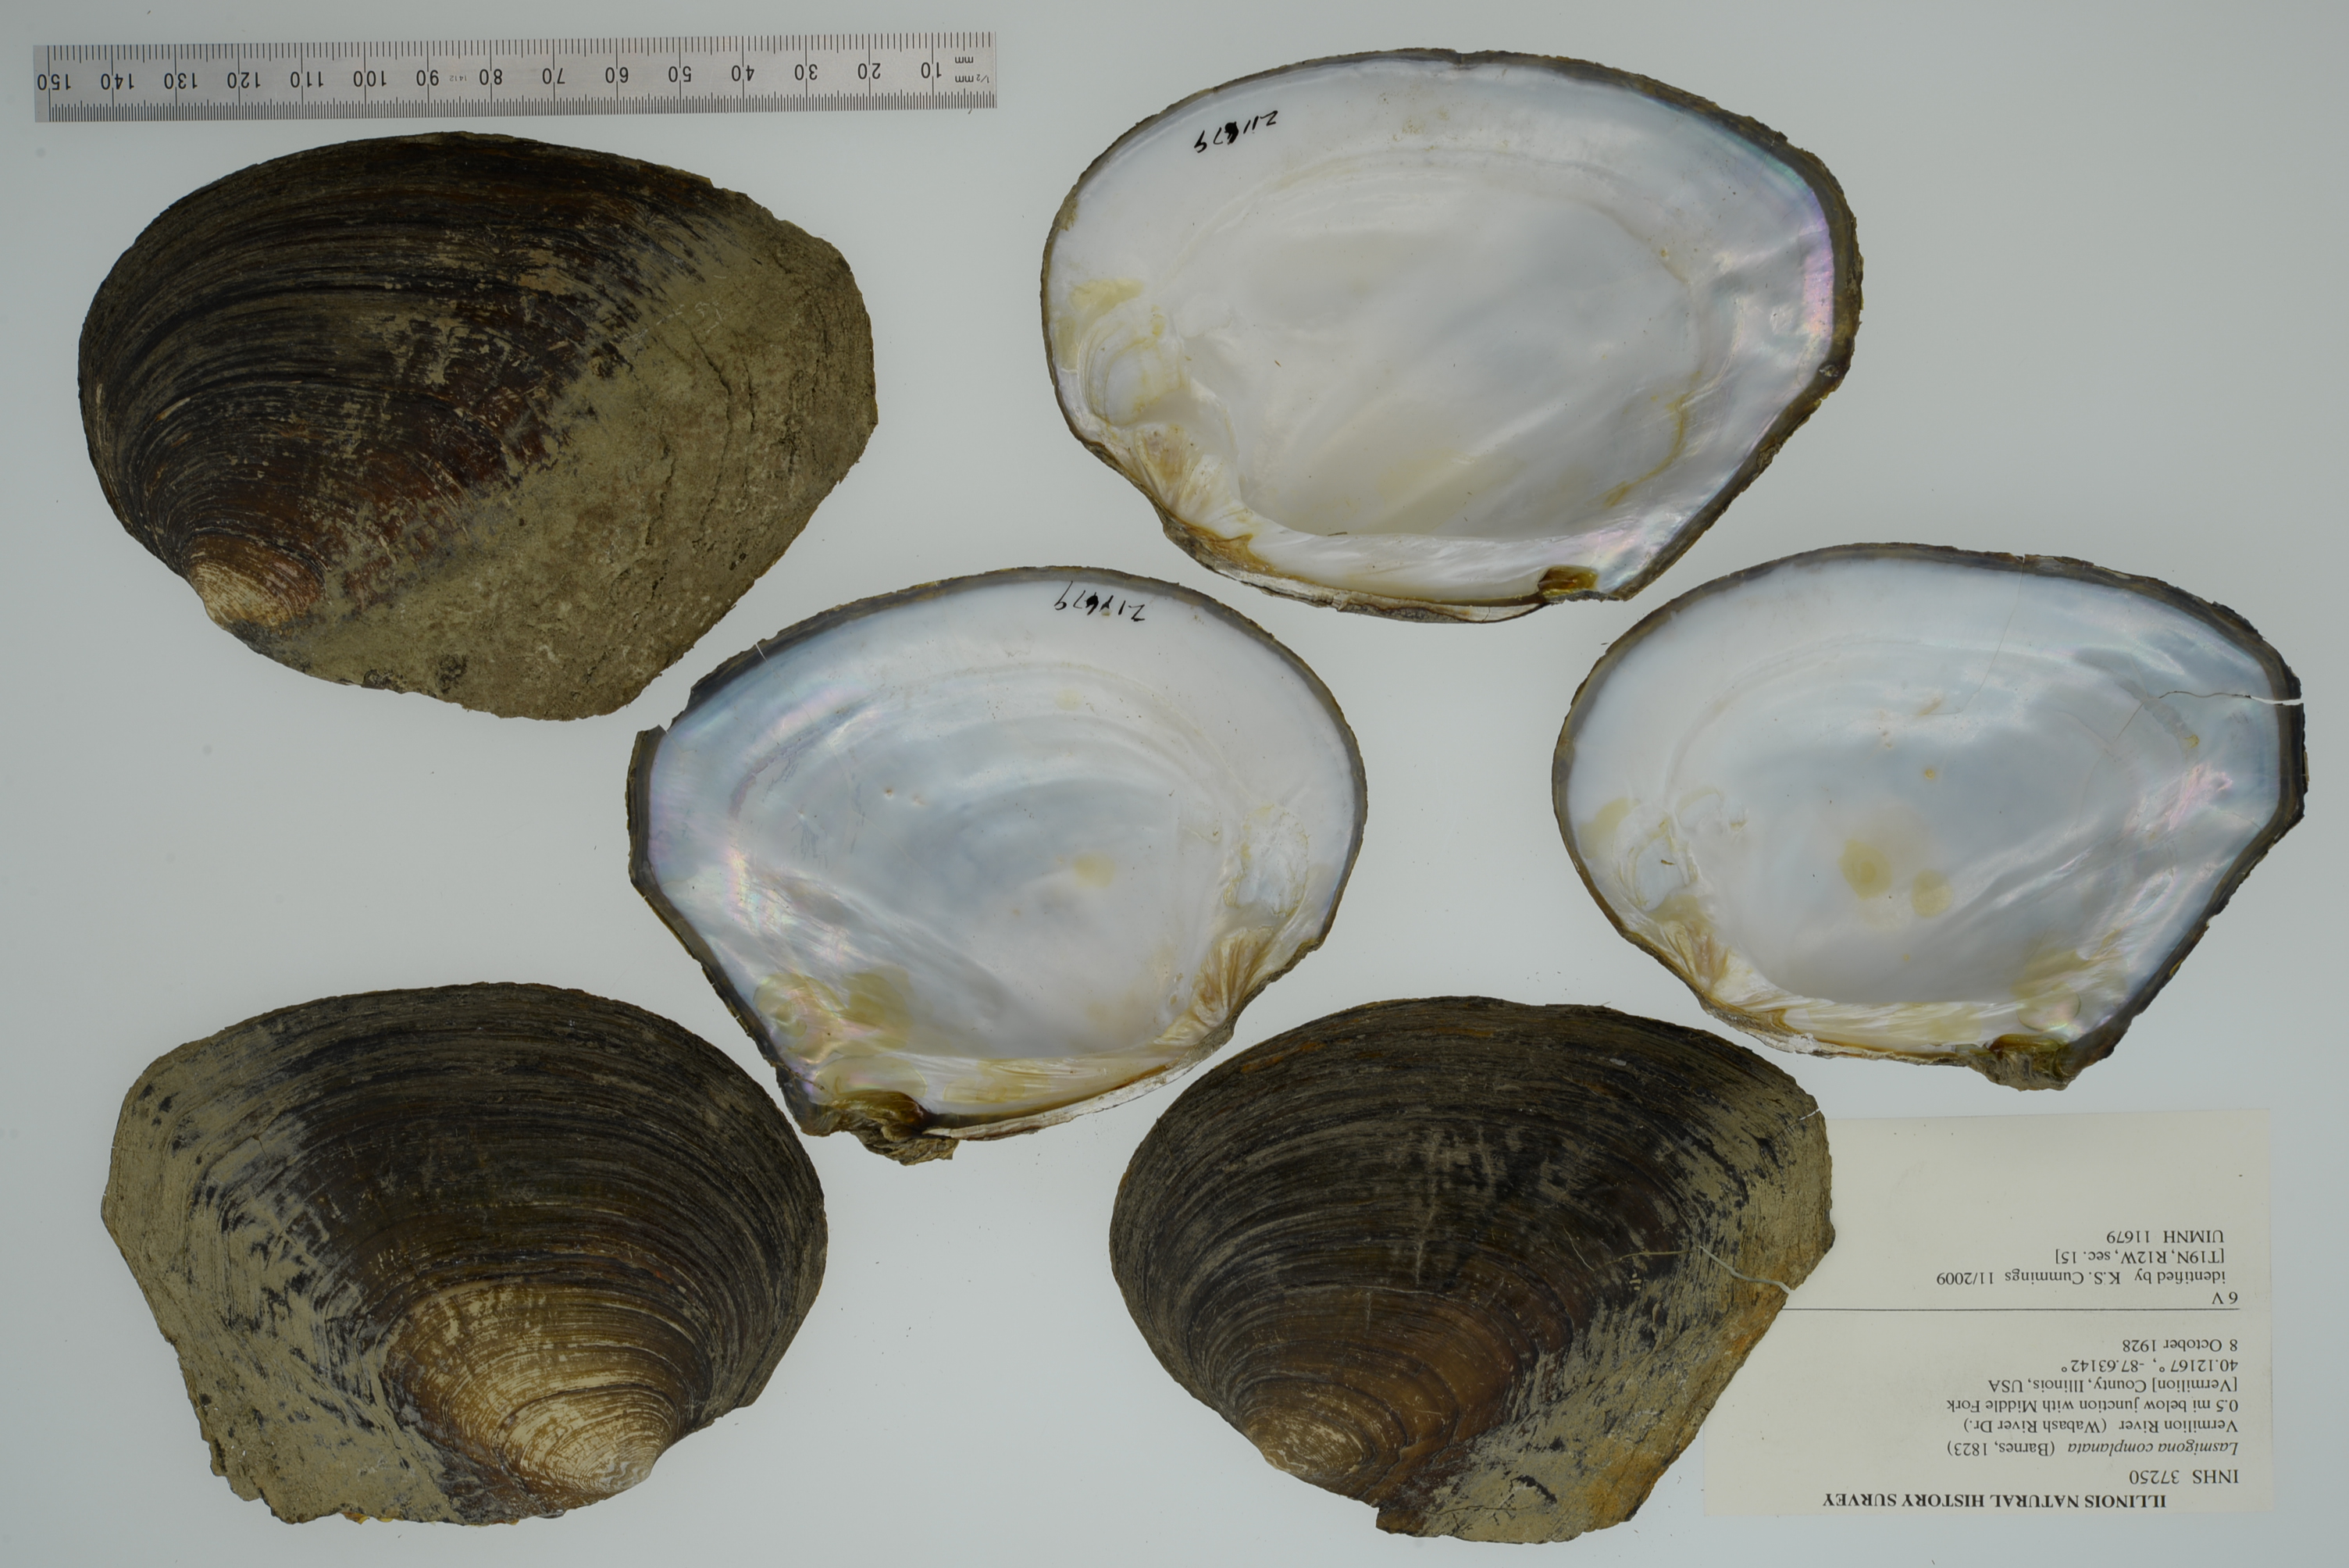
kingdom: Animalia
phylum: Mollusca
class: Bivalvia
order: Unionida
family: Unionidae
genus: Lasmigona
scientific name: Lasmigona complanata
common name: White heelsplitter
